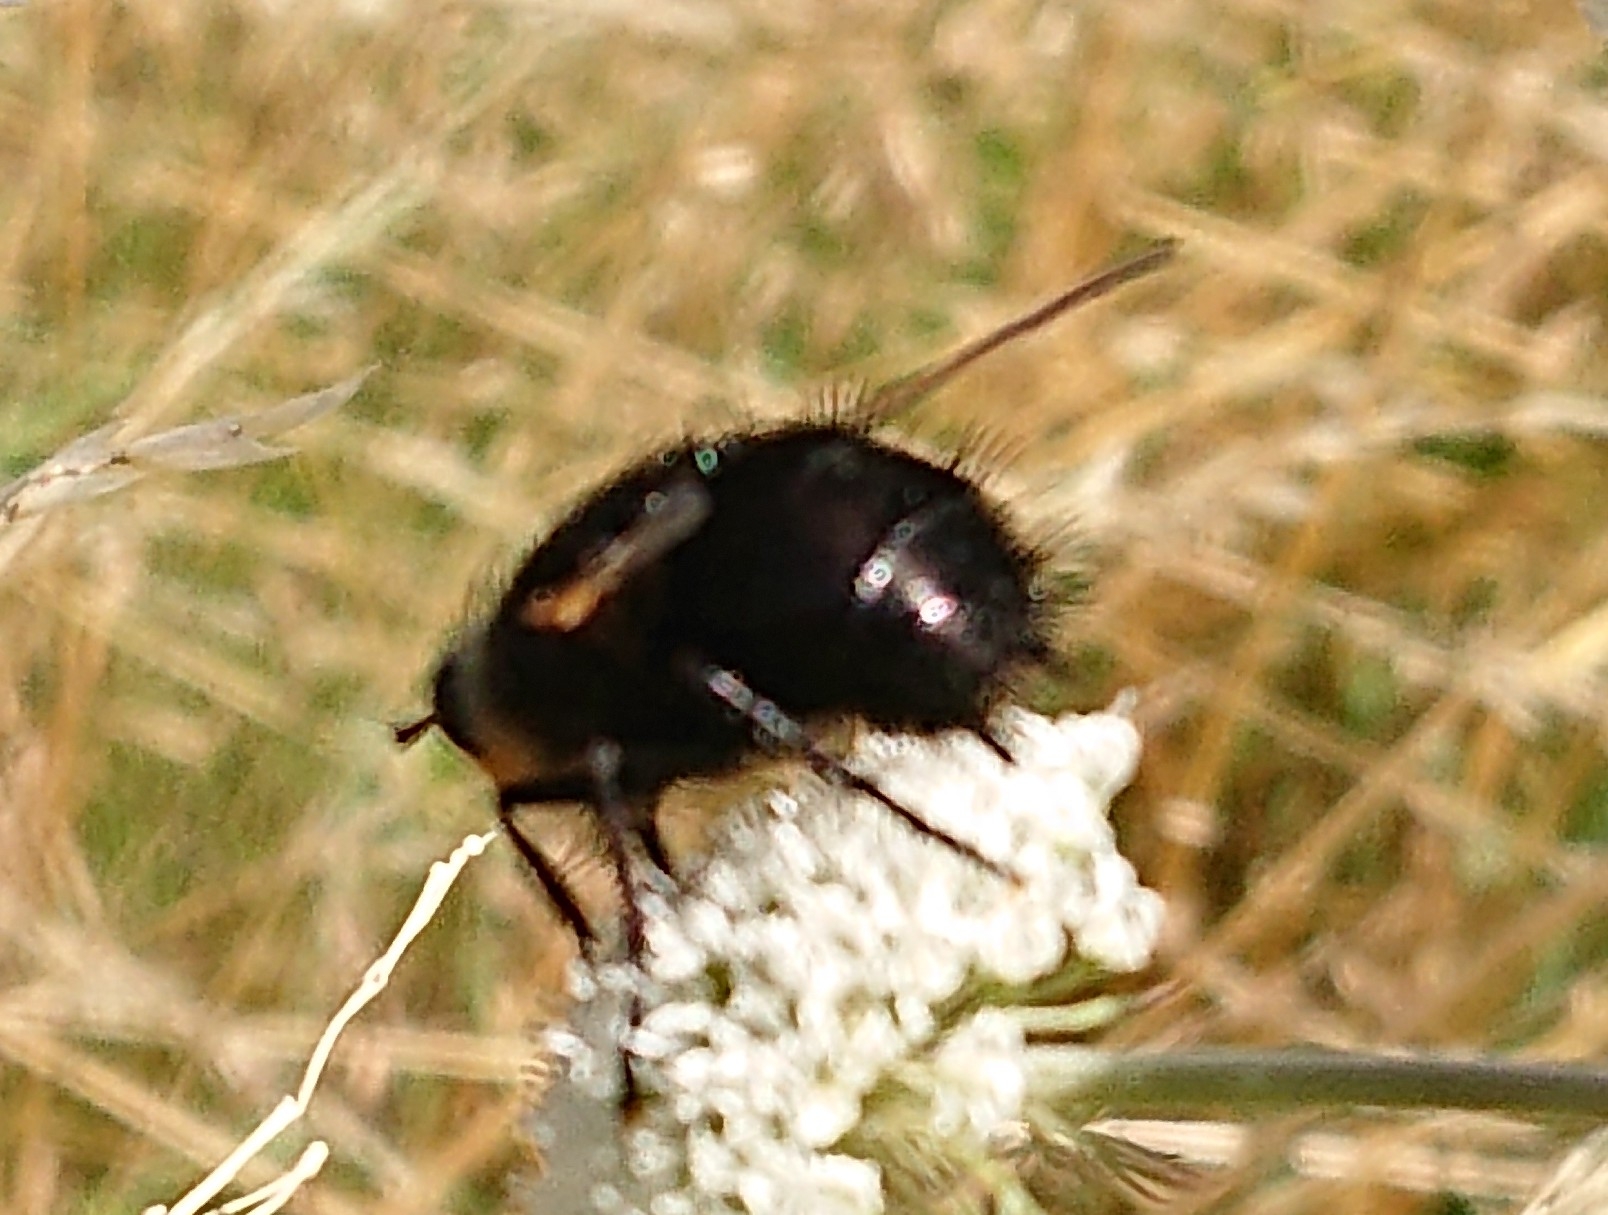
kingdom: Animalia
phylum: Arthropoda
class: Insecta
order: Diptera
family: Tachinidae
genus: Tachina
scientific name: Tachina grossa
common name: Kæmpefluen Harald
